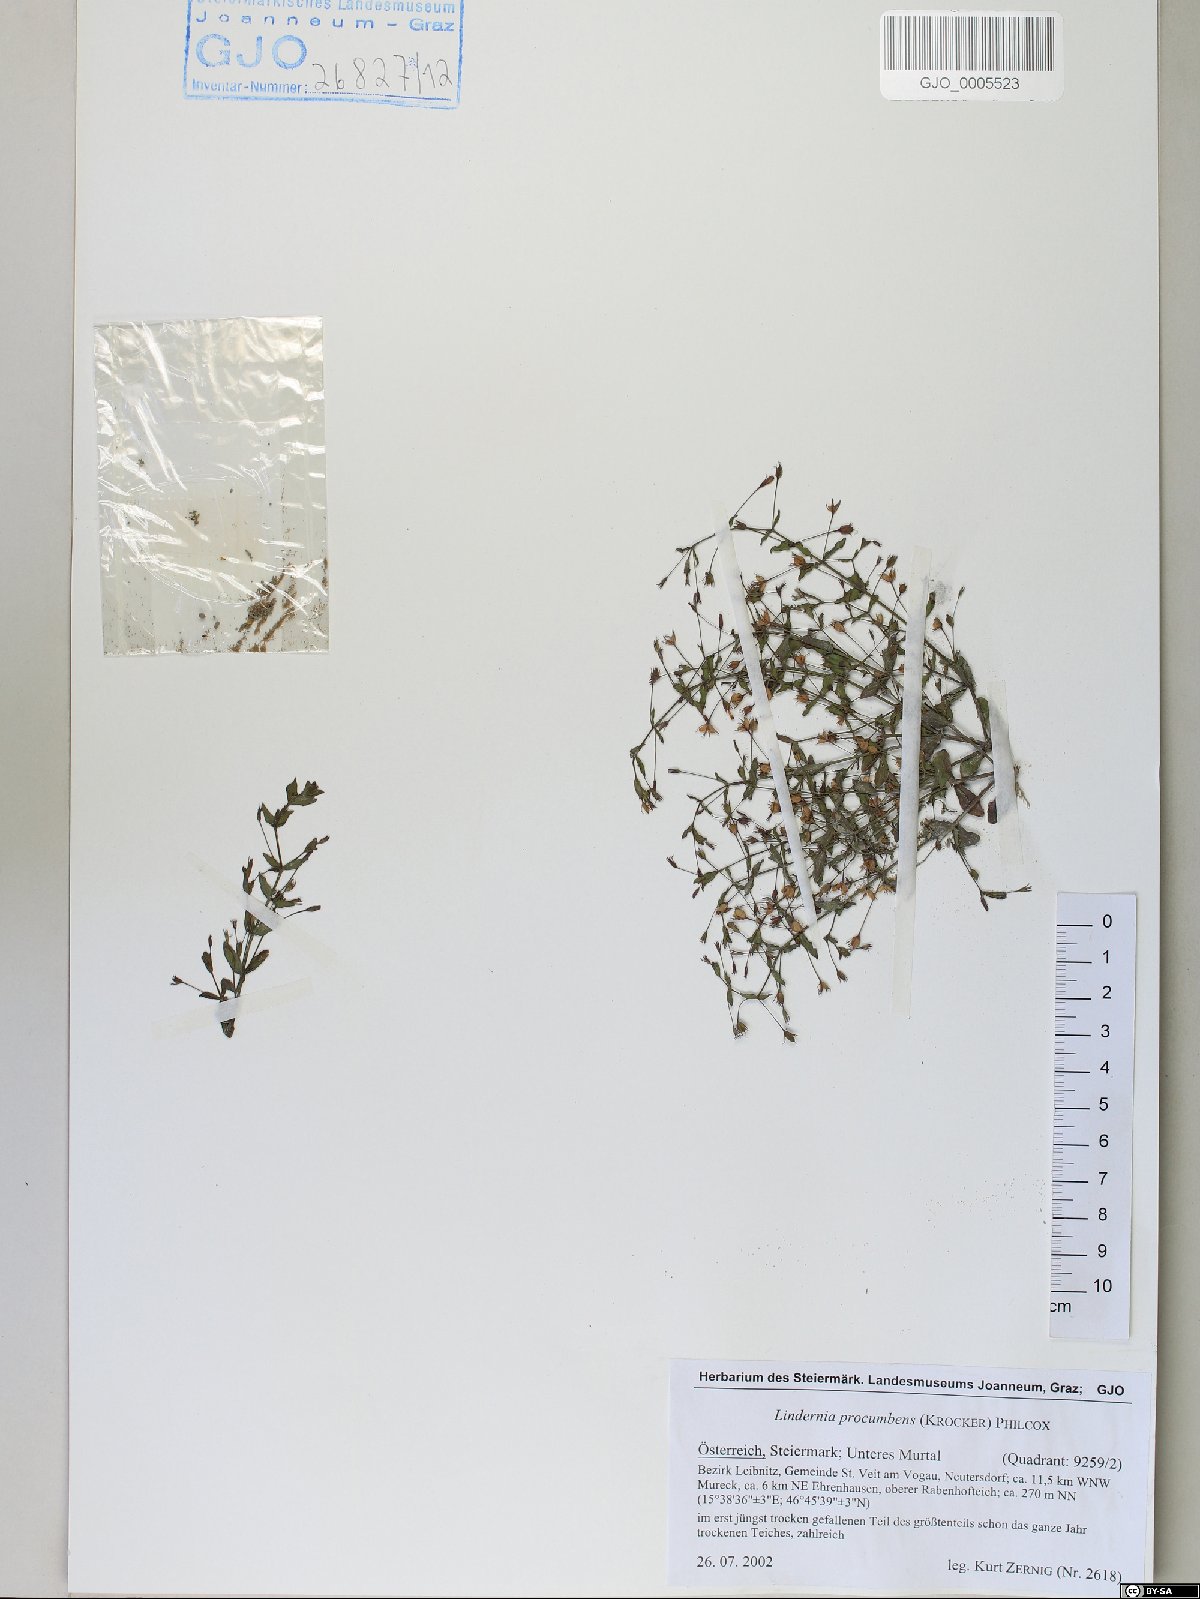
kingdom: Plantae
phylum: Tracheophyta
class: Magnoliopsida
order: Lamiales
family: Linderniaceae
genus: Lindernia
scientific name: Lindernia procumbens
